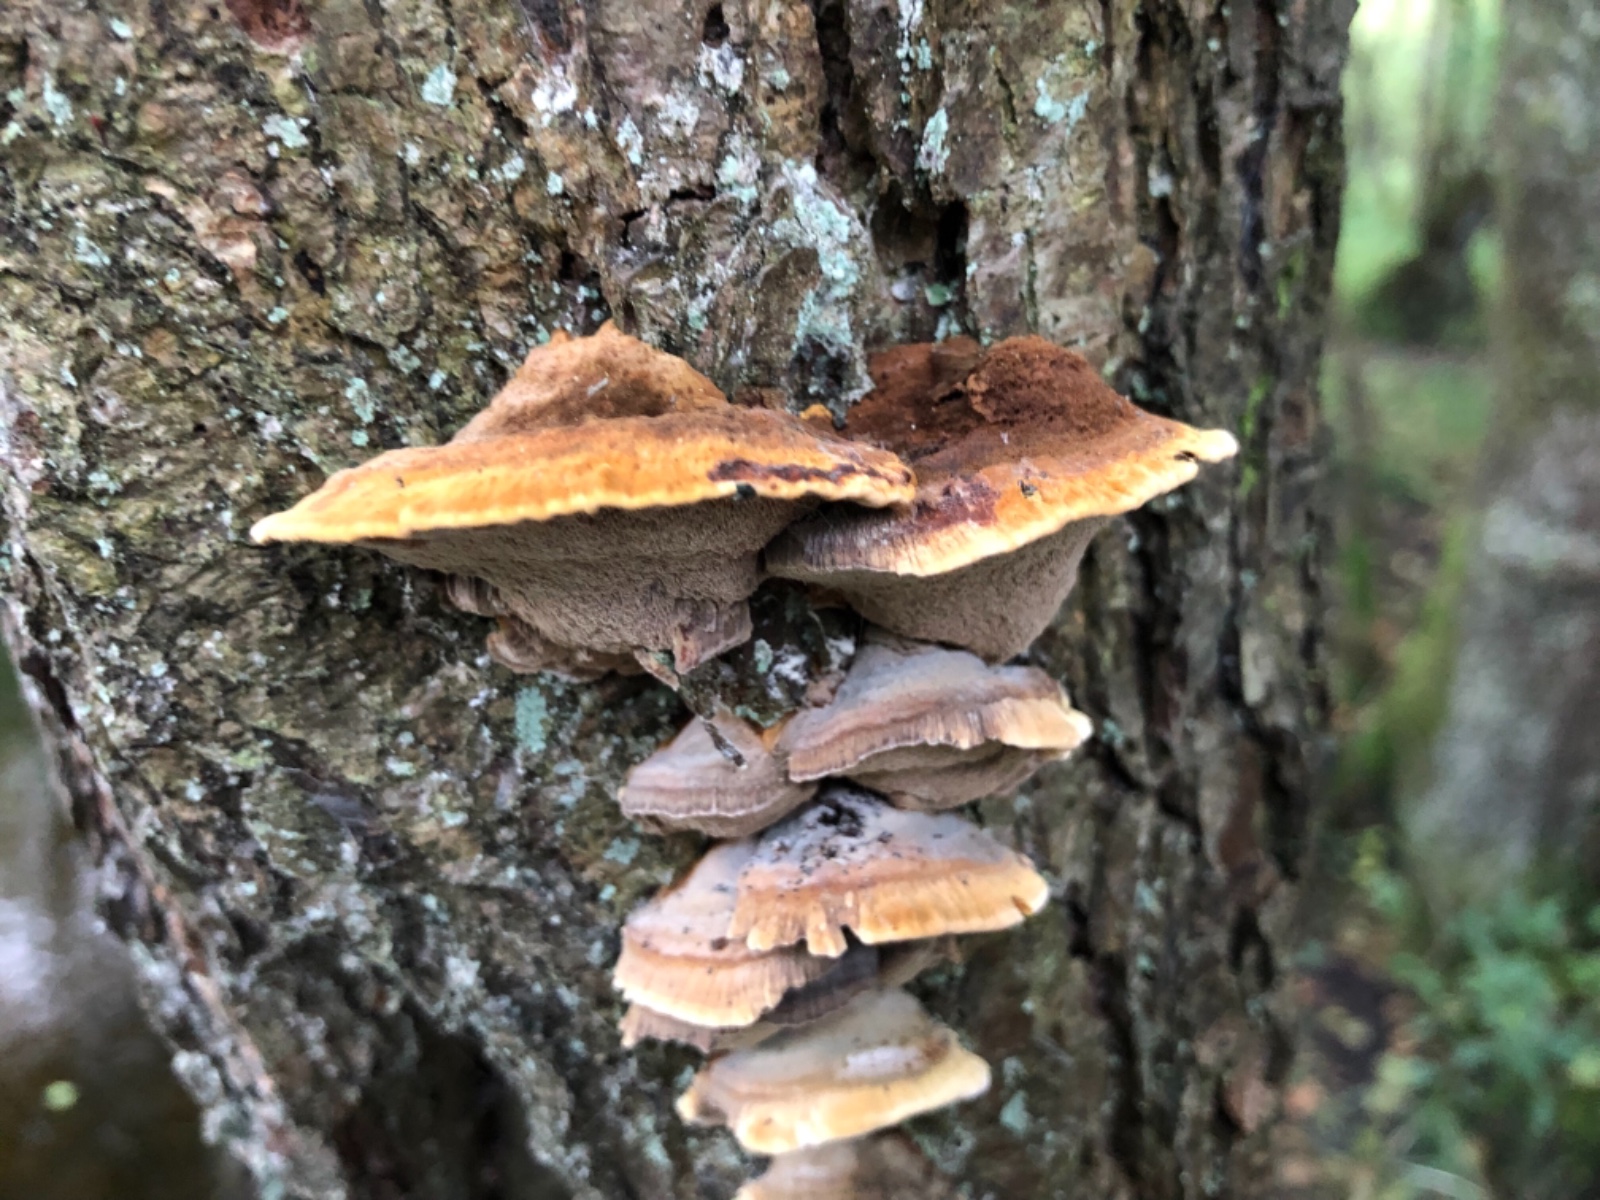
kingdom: Fungi
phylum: Basidiomycota
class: Agaricomycetes
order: Hymenochaetales
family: Hymenochaetaceae
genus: Xanthoporia
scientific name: Xanthoporia radiata
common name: elle-spejlporesvamp
